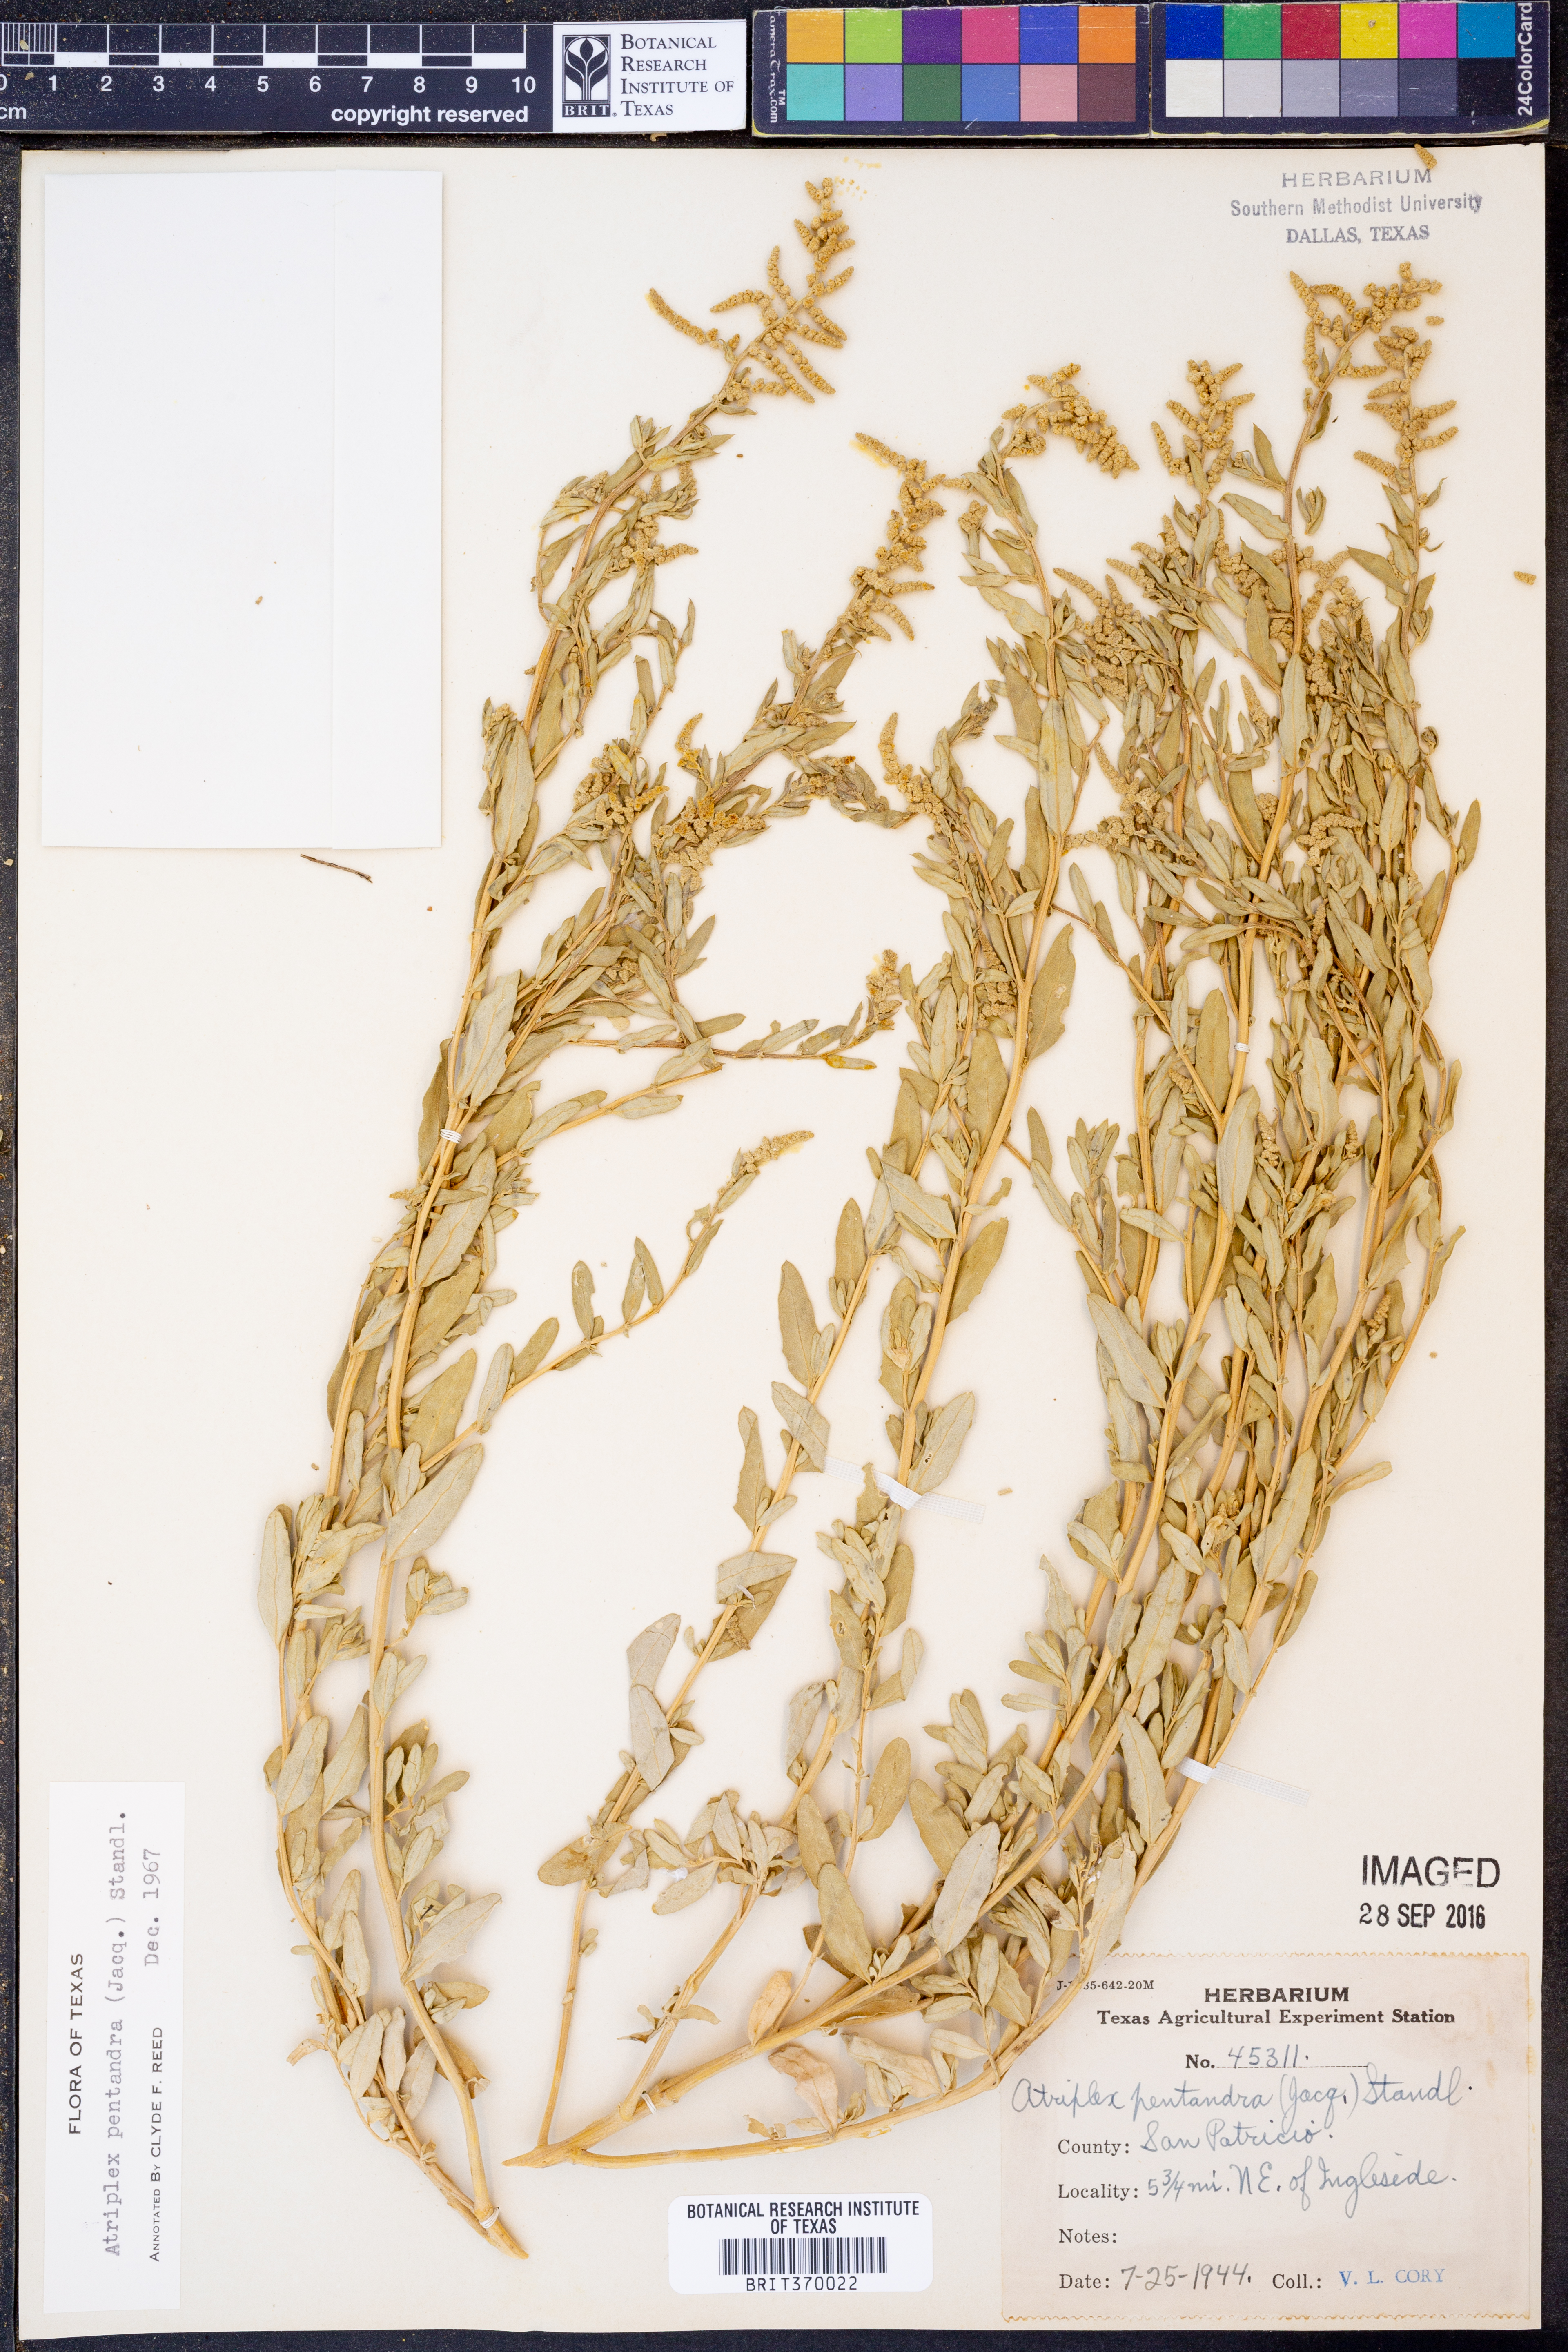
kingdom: Plantae
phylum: Tracheophyta
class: Magnoliopsida
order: Caryophyllales
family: Amaranthaceae
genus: Atriplex
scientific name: Atriplex cristata
